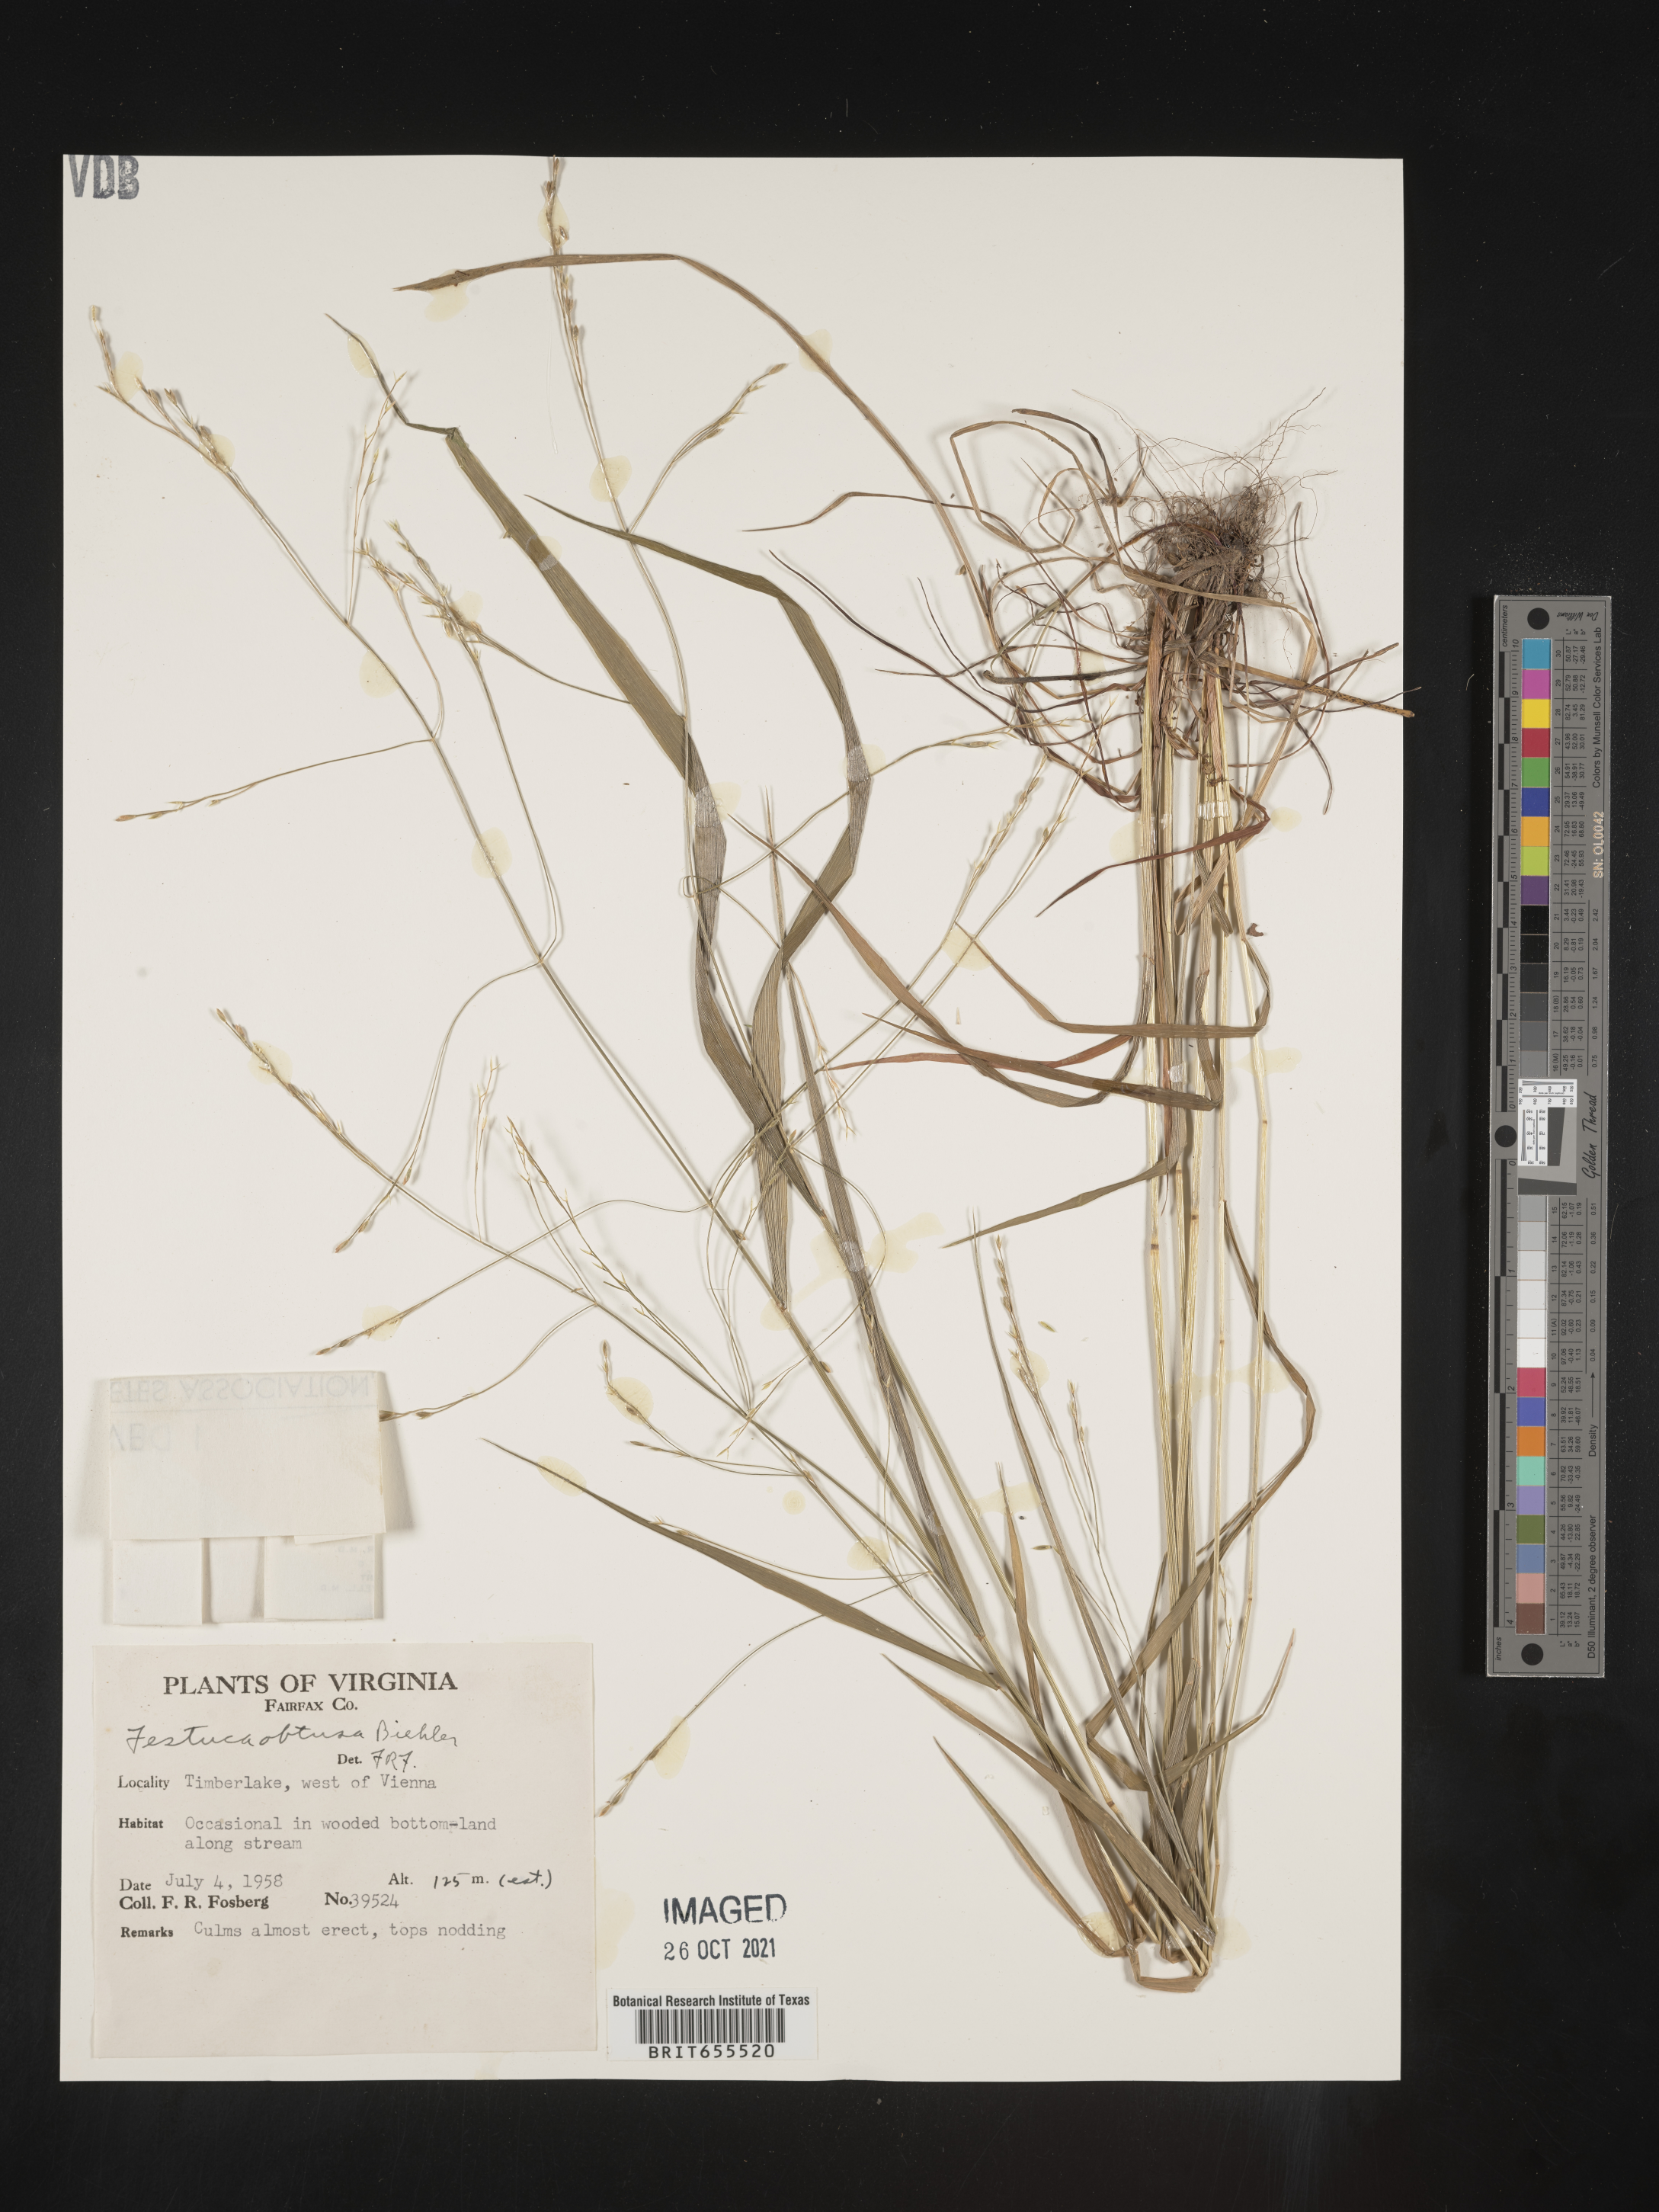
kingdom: Plantae
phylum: Tracheophyta
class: Liliopsida
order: Poales
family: Poaceae
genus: Festuca
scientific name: Festuca
